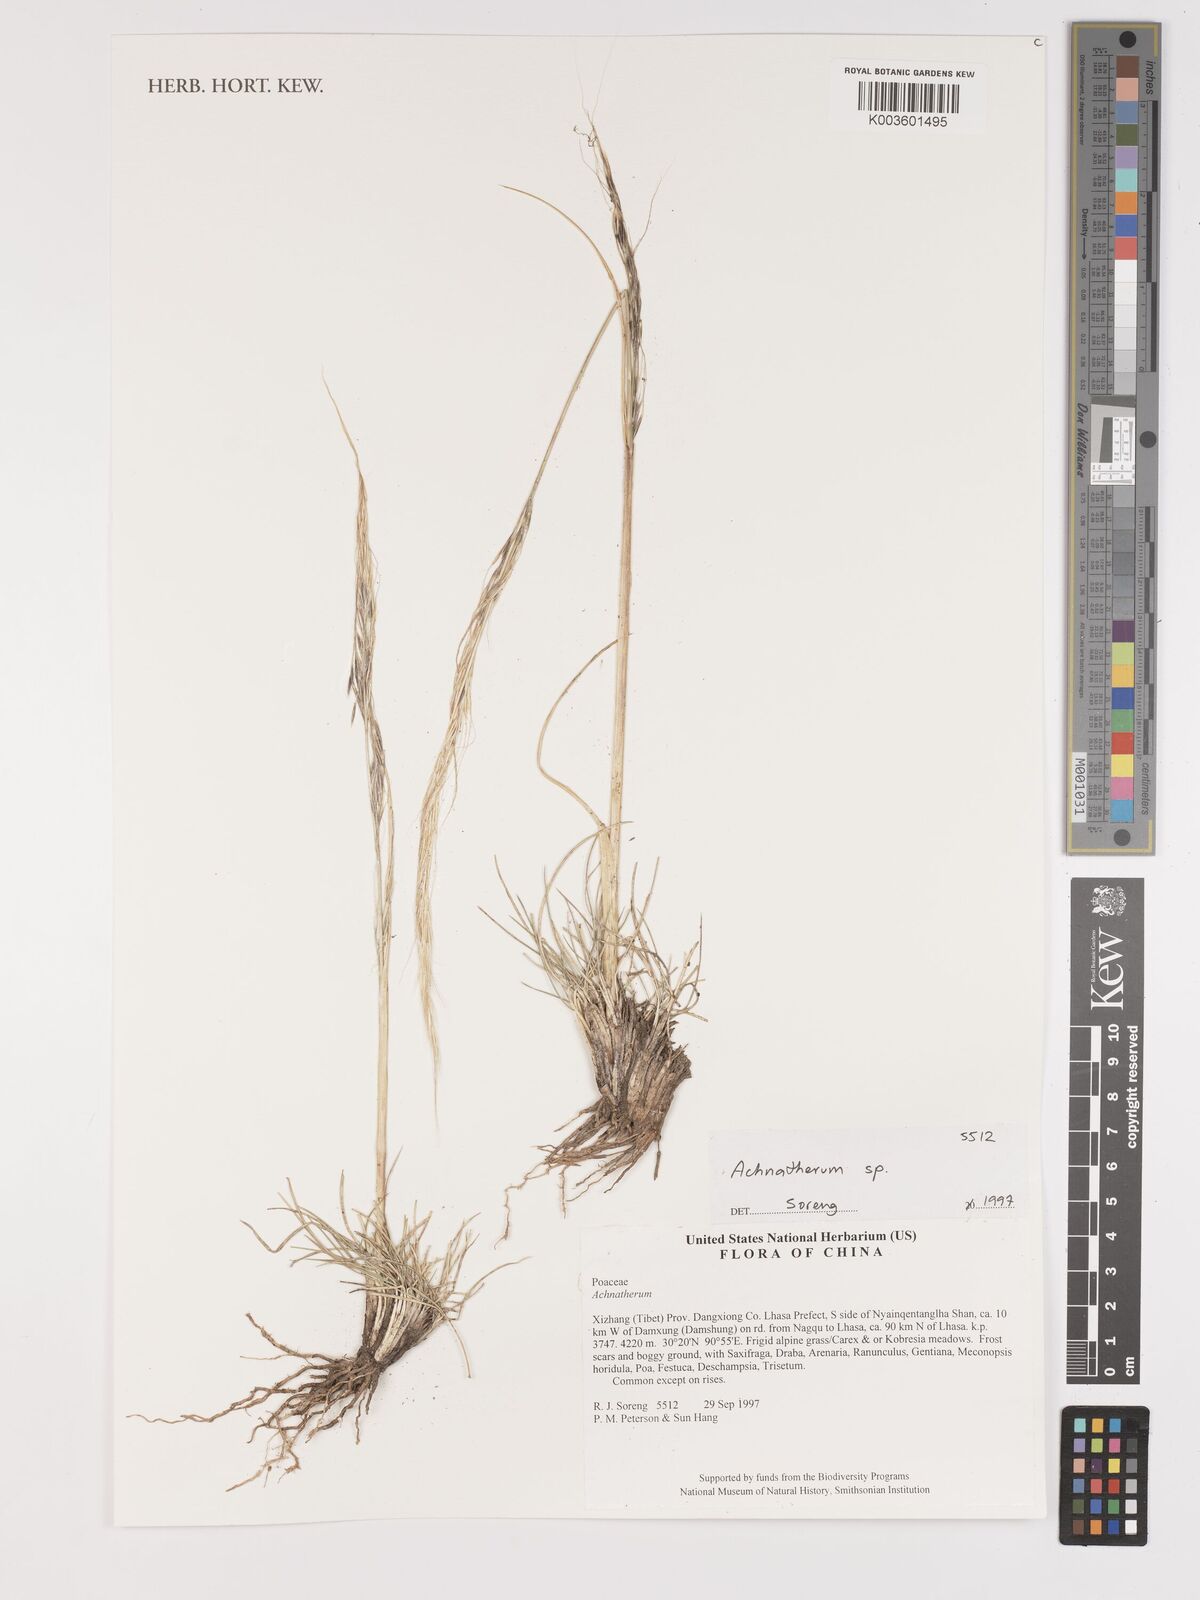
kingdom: Plantae
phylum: Tracheophyta
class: Liliopsida
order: Poales
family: Poaceae
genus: Stipa
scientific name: Stipa
